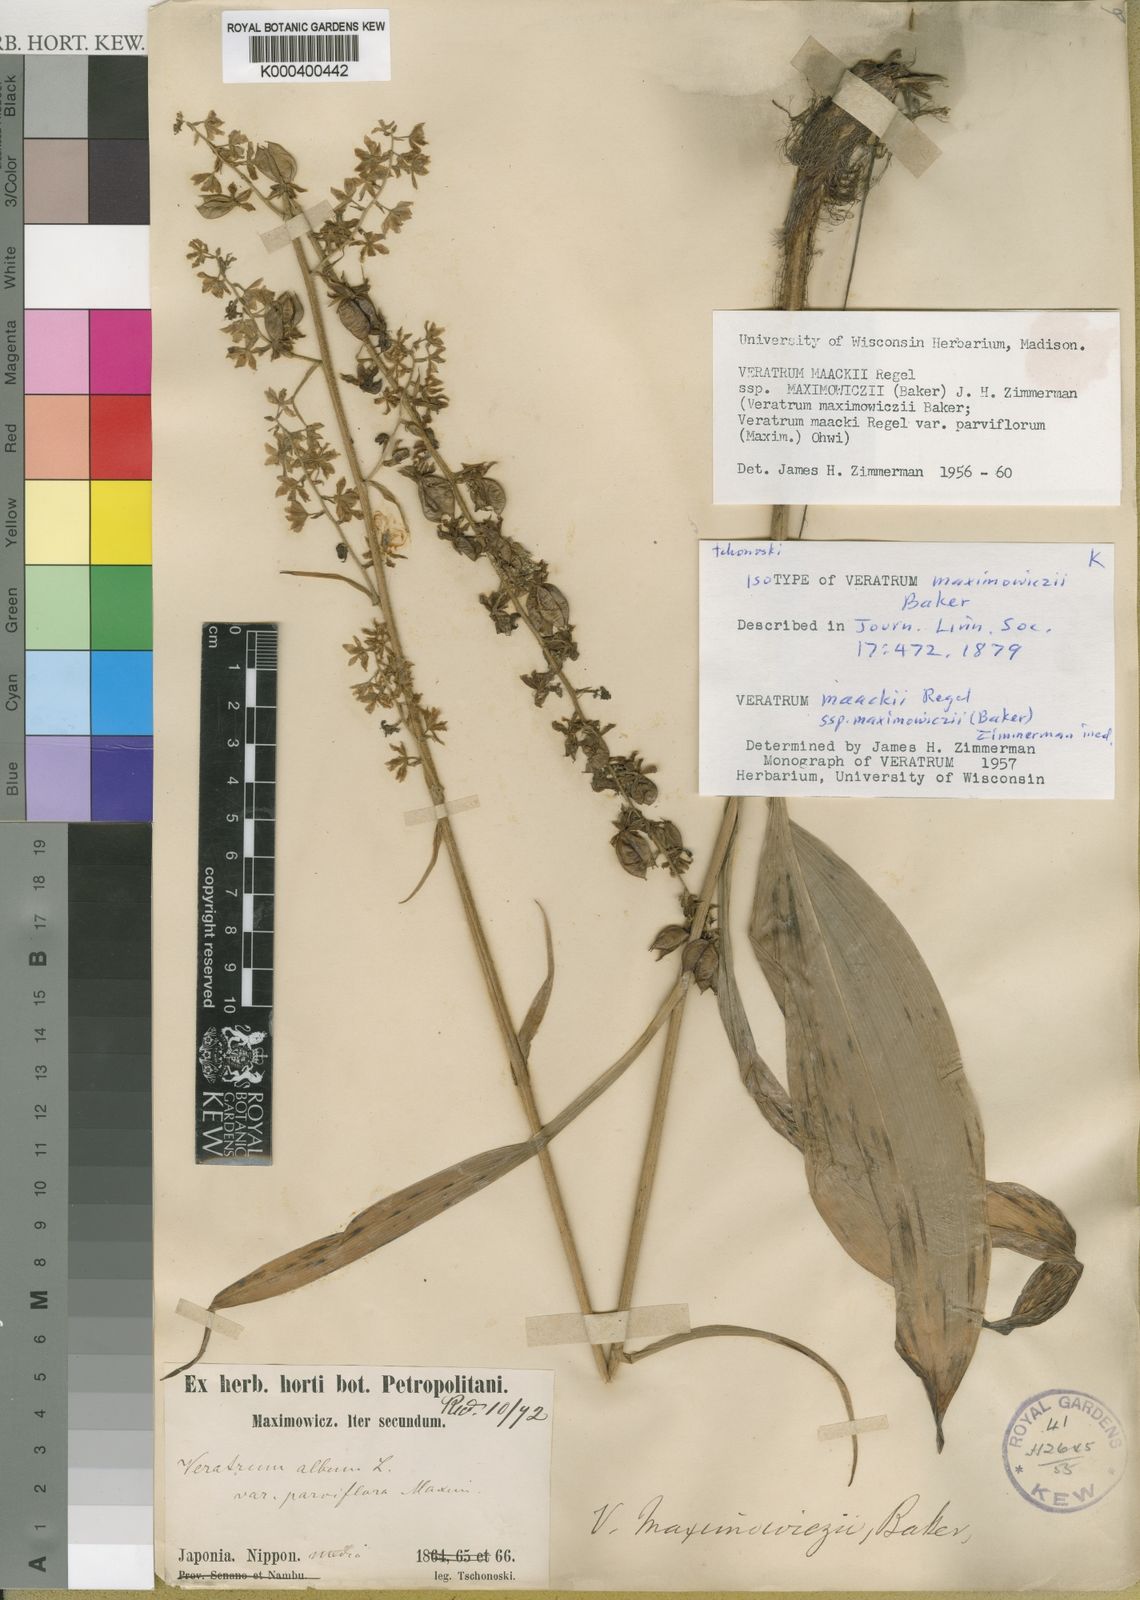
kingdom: Plantae
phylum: Tracheophyta
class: Liliopsida
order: Liliales
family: Melanthiaceae
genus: Veratrum
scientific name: Veratrum maackii
